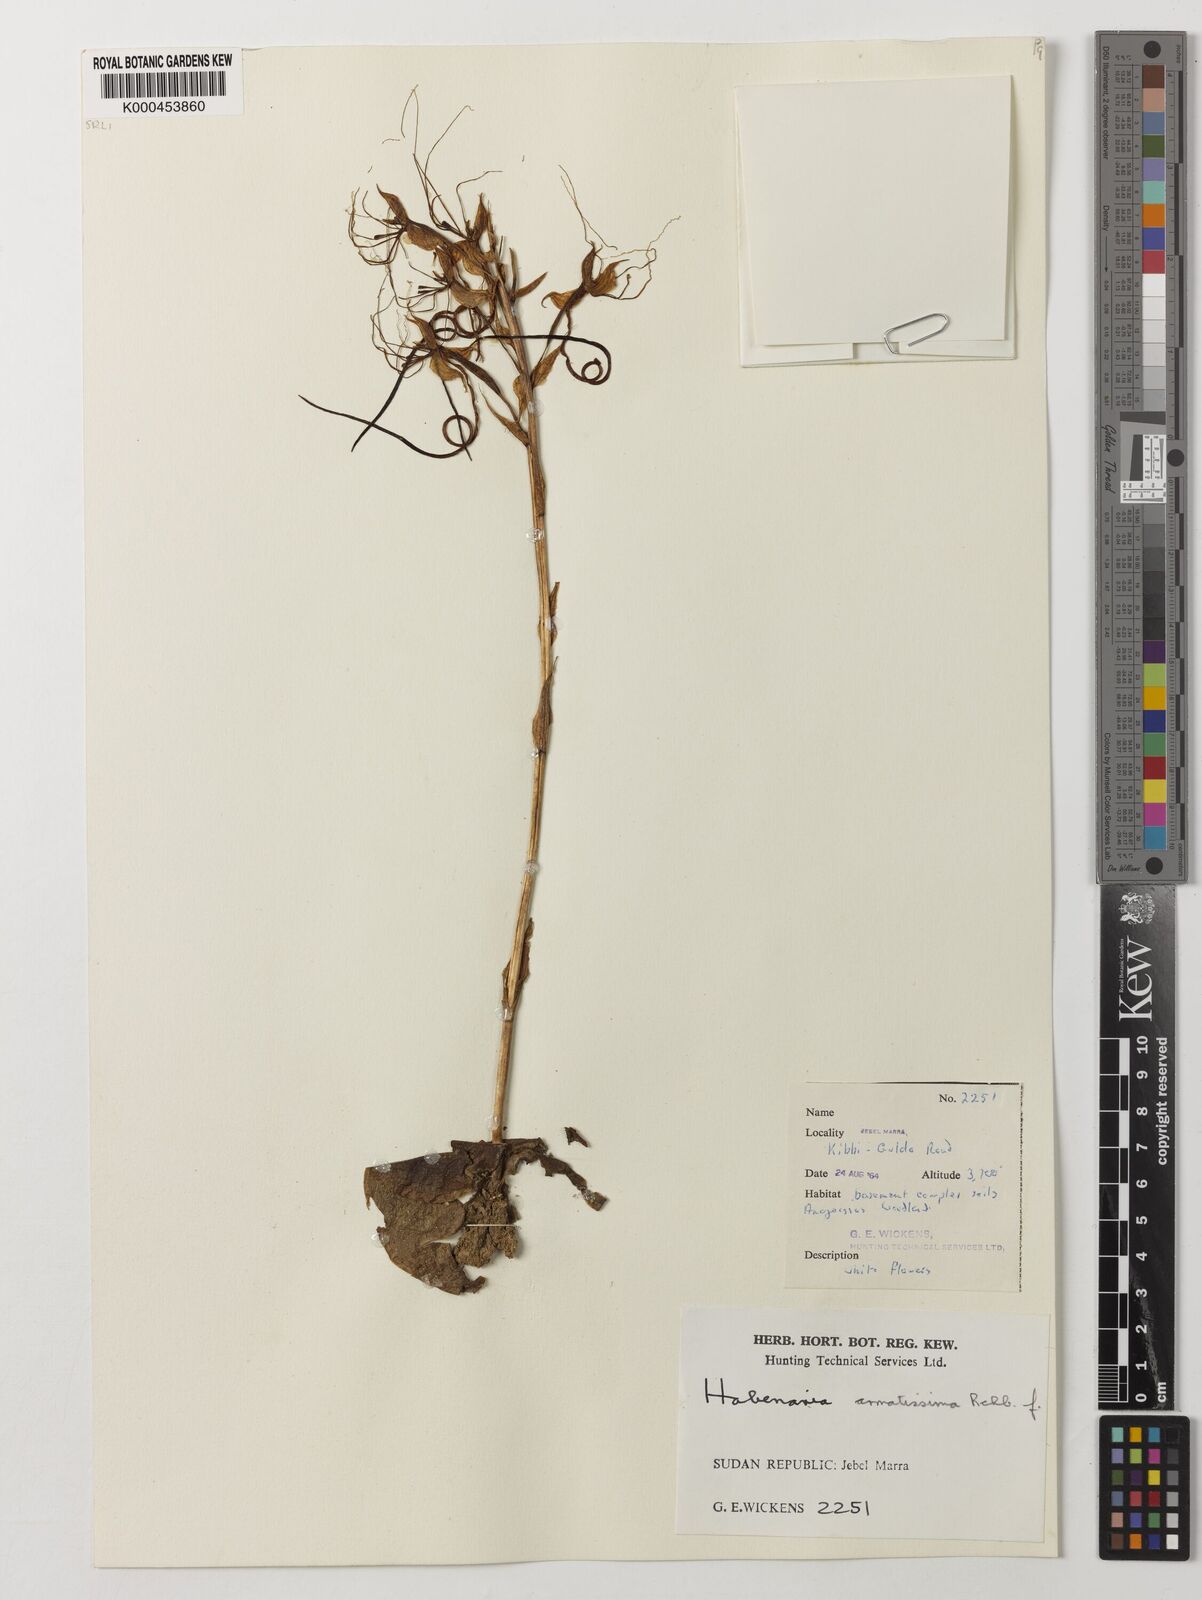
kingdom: Plantae
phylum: Tracheophyta
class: Liliopsida
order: Asparagales
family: Orchidaceae
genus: Habenaria
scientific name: Habenaria armatissima
